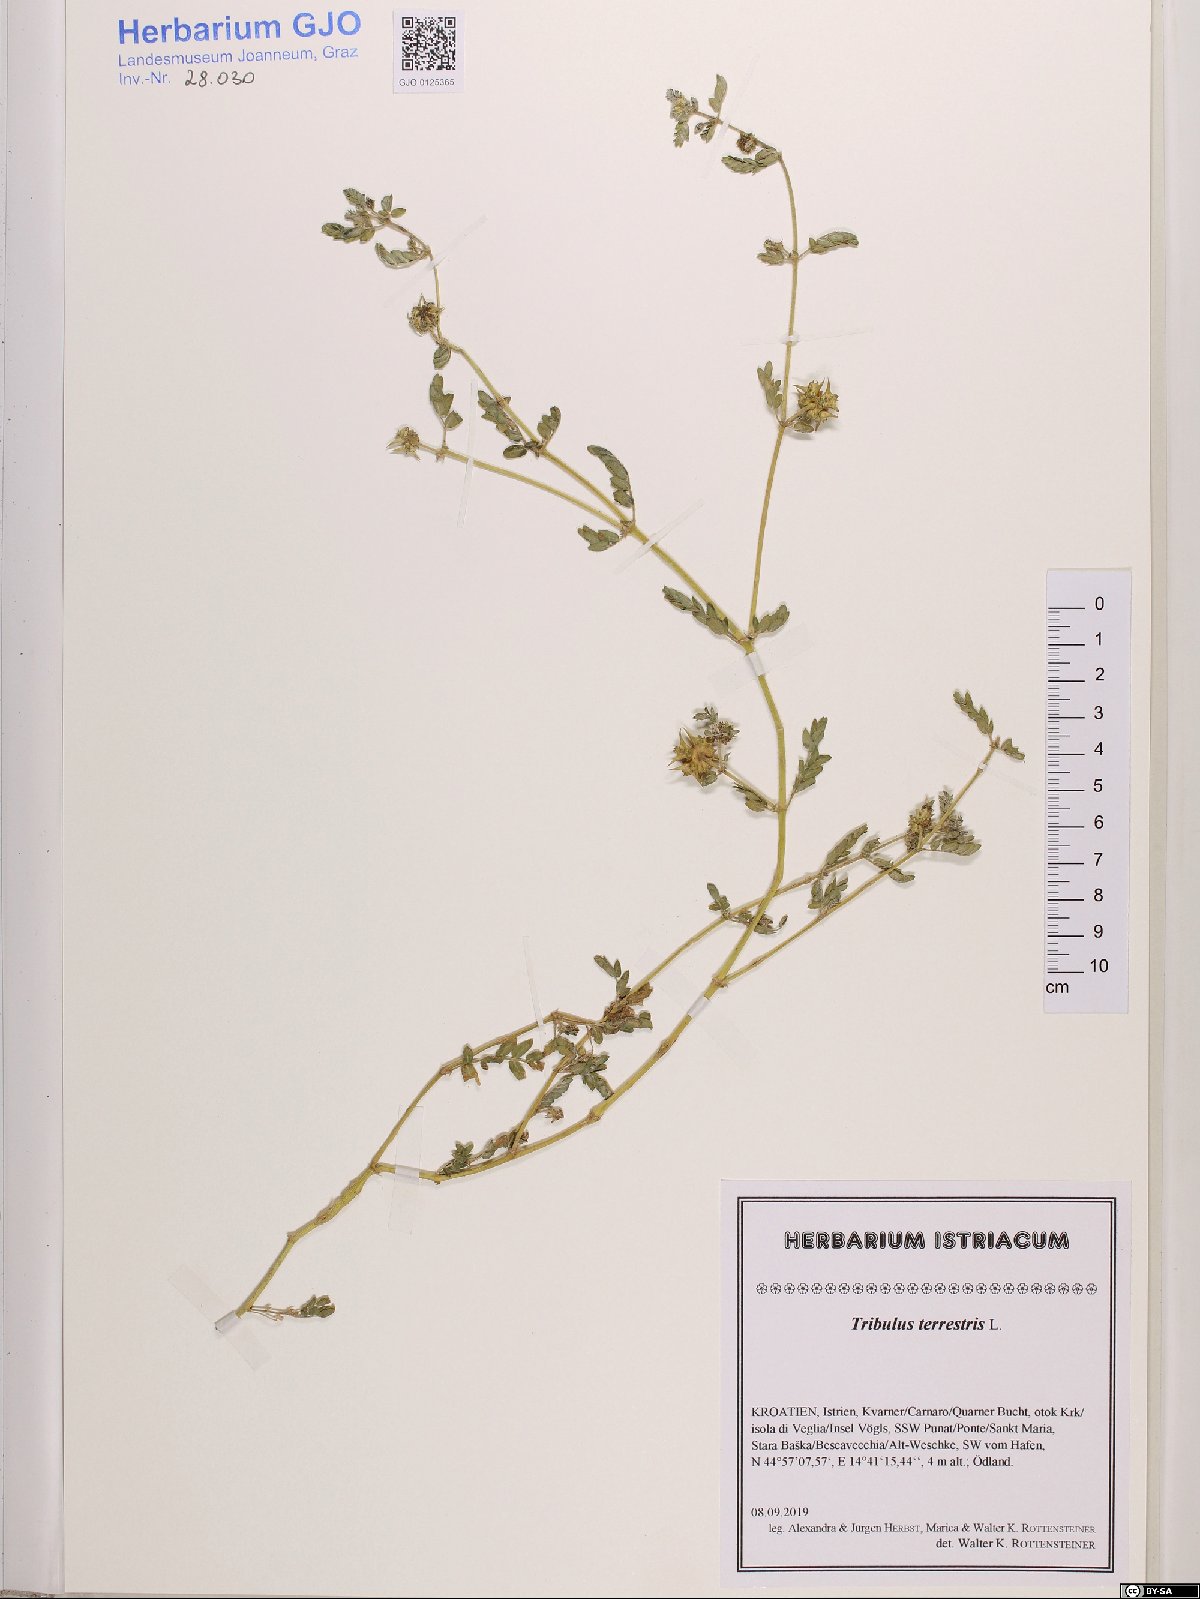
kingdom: Plantae
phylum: Tracheophyta
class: Magnoliopsida
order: Zygophyllales
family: Zygophyllaceae
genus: Tribulus
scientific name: Tribulus terrestris
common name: Puncturevine
